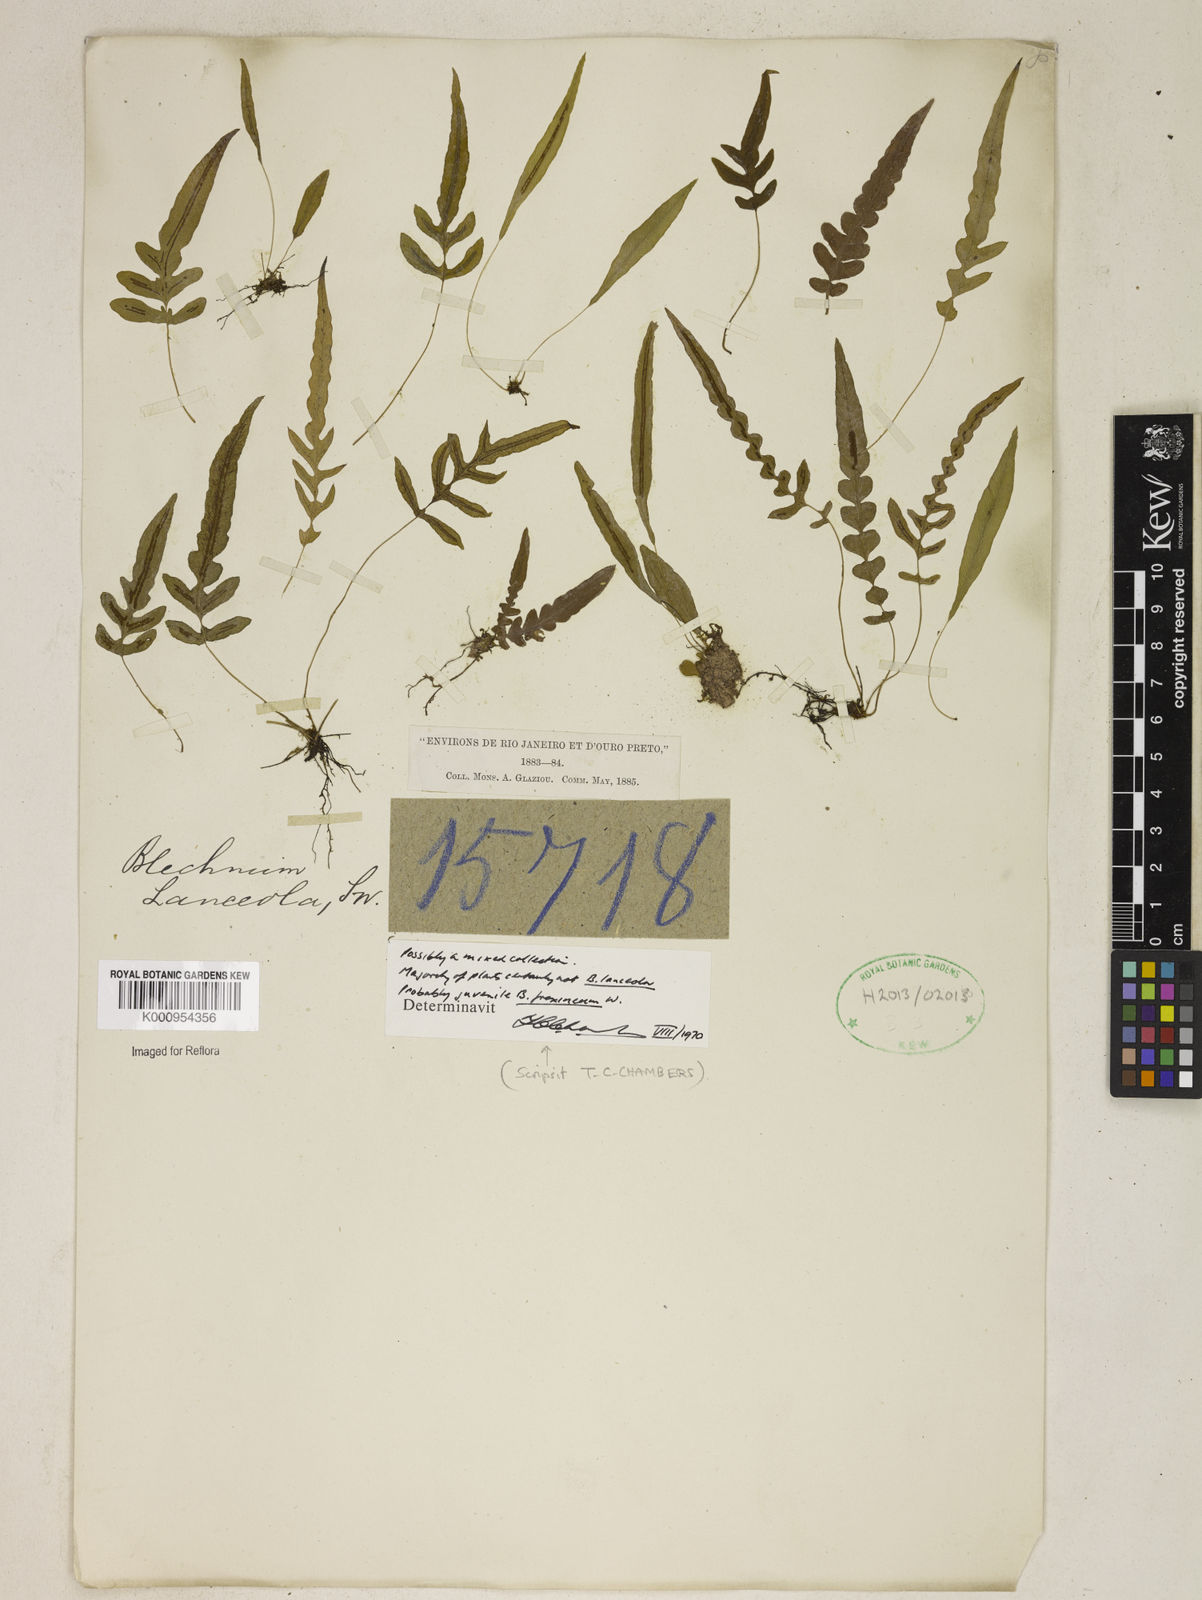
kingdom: Plantae
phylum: Tracheophyta
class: Polypodiopsida
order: Polypodiales
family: Blechnaceae
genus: Blechnum
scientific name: Blechnum lanceola
